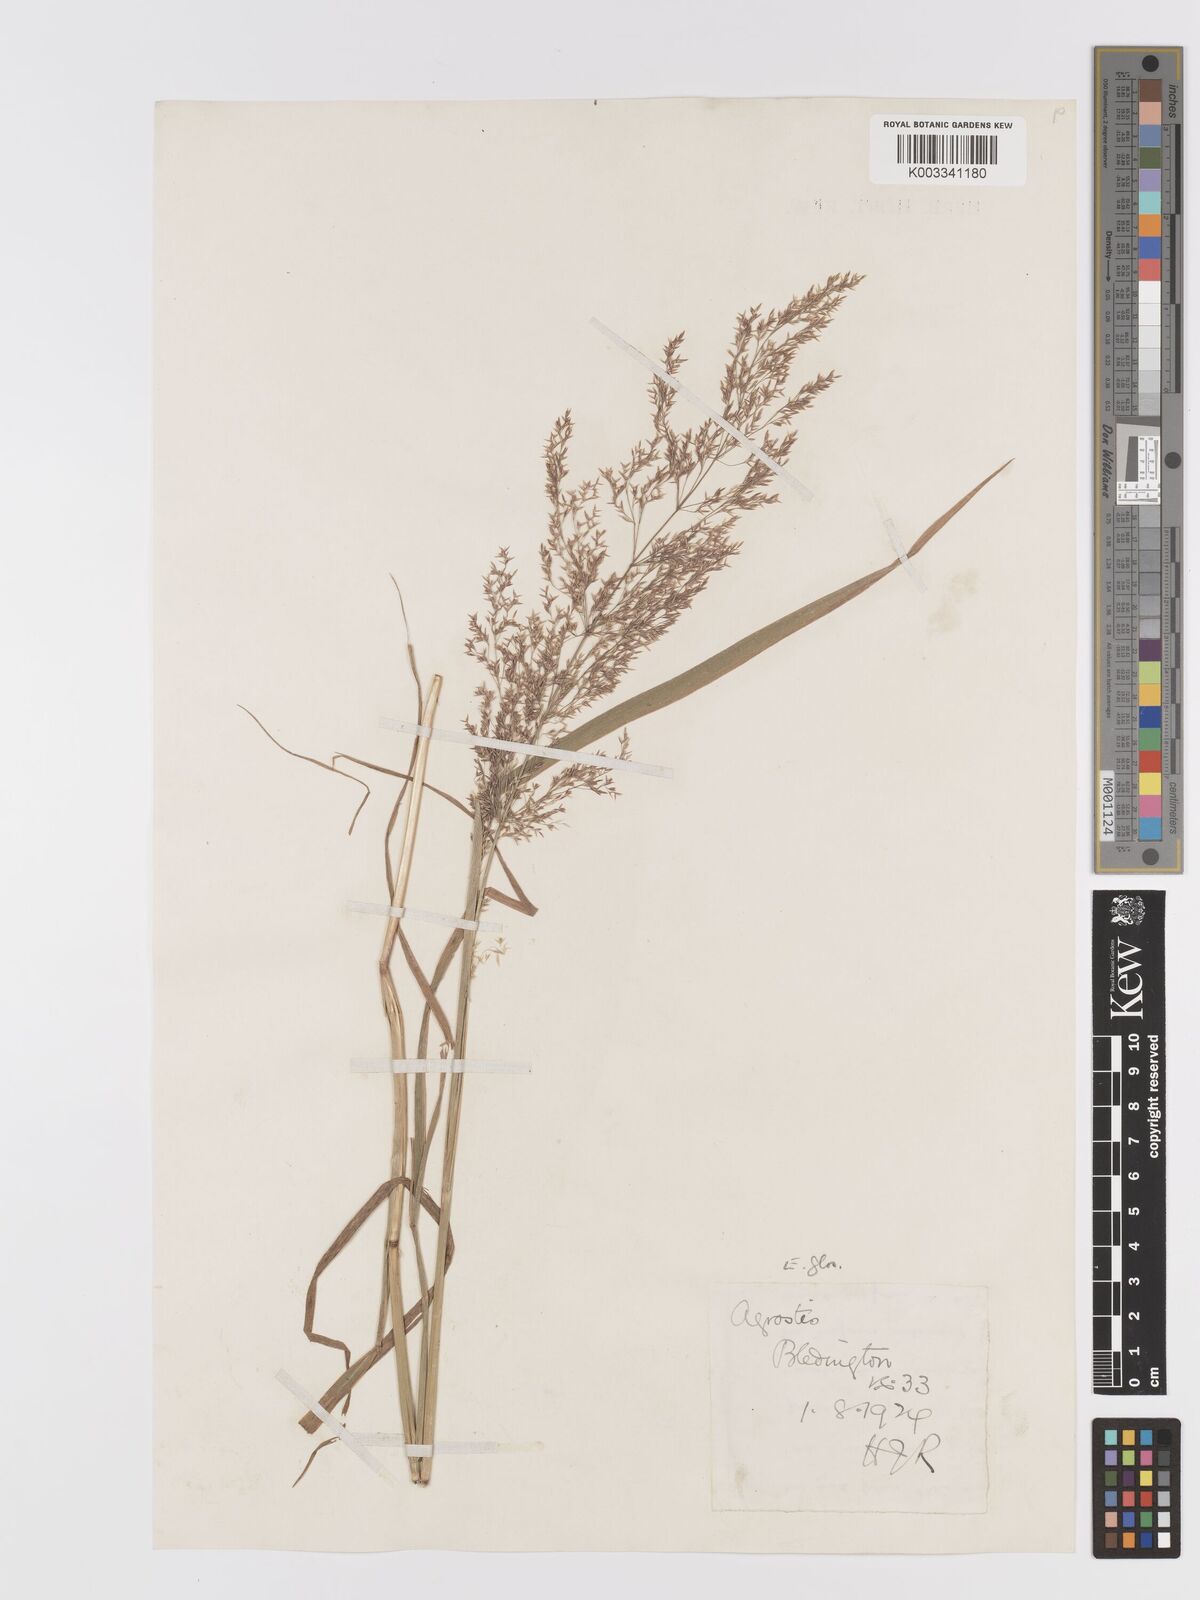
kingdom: Plantae
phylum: Tracheophyta
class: Liliopsida
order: Poales
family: Poaceae
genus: Agrostis
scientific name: Agrostis gigantea
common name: Black bent
